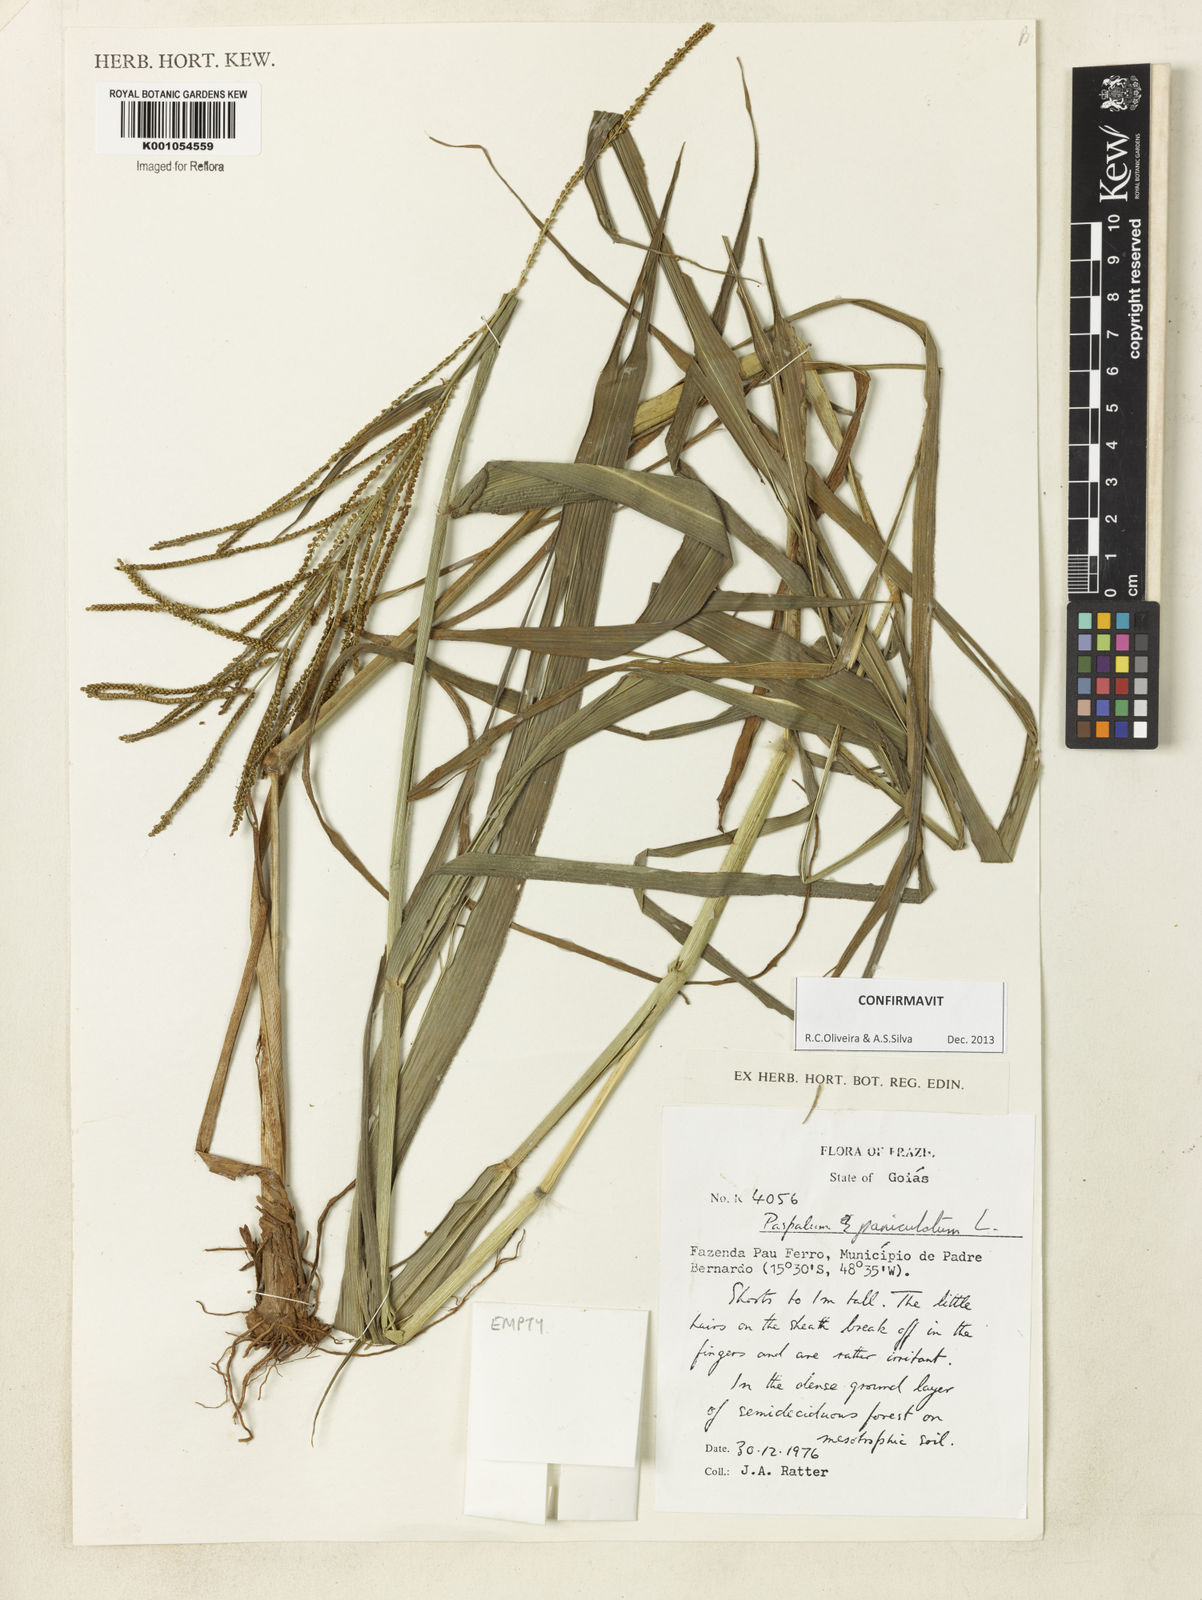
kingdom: Plantae
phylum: Tracheophyta
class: Liliopsida
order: Poales
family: Poaceae
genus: Paspalum
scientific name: Paspalum paniculatum
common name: Arrocillo
